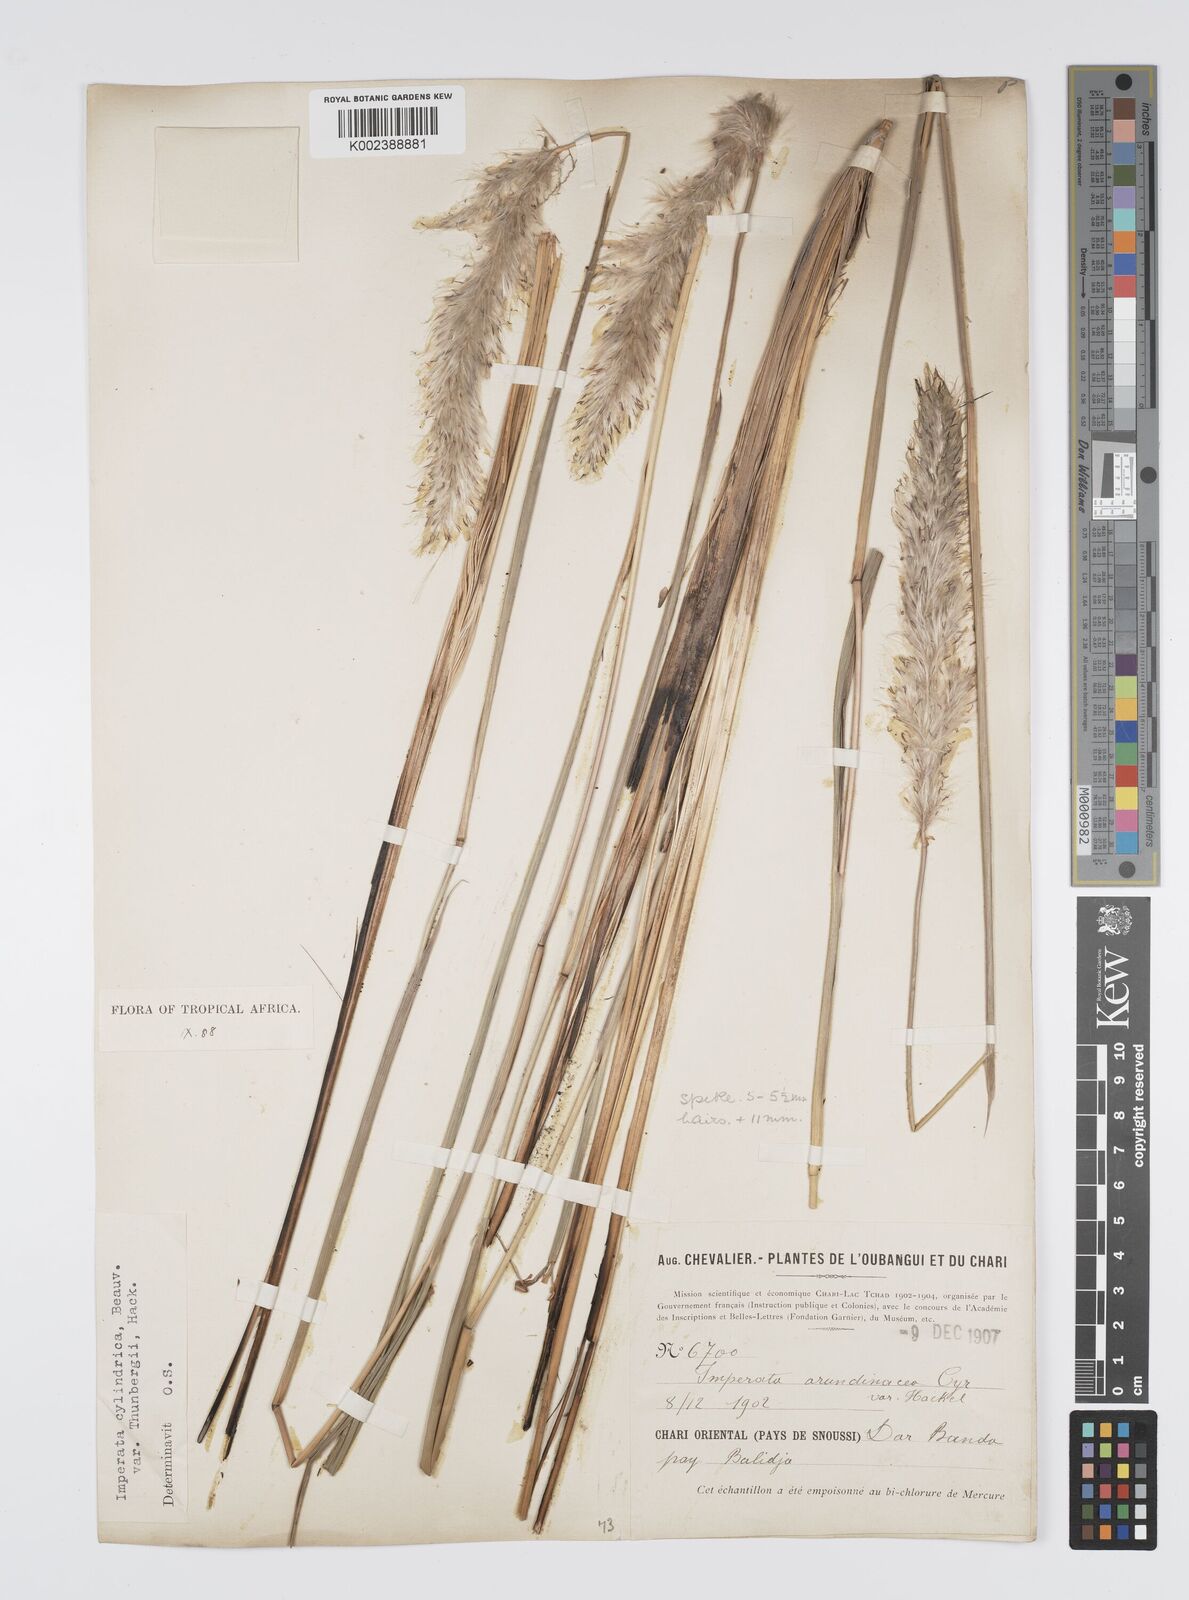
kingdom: Plantae
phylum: Tracheophyta
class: Liliopsida
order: Poales
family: Poaceae
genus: Imperata
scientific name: Imperata cylindrica
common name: Cogongrass
